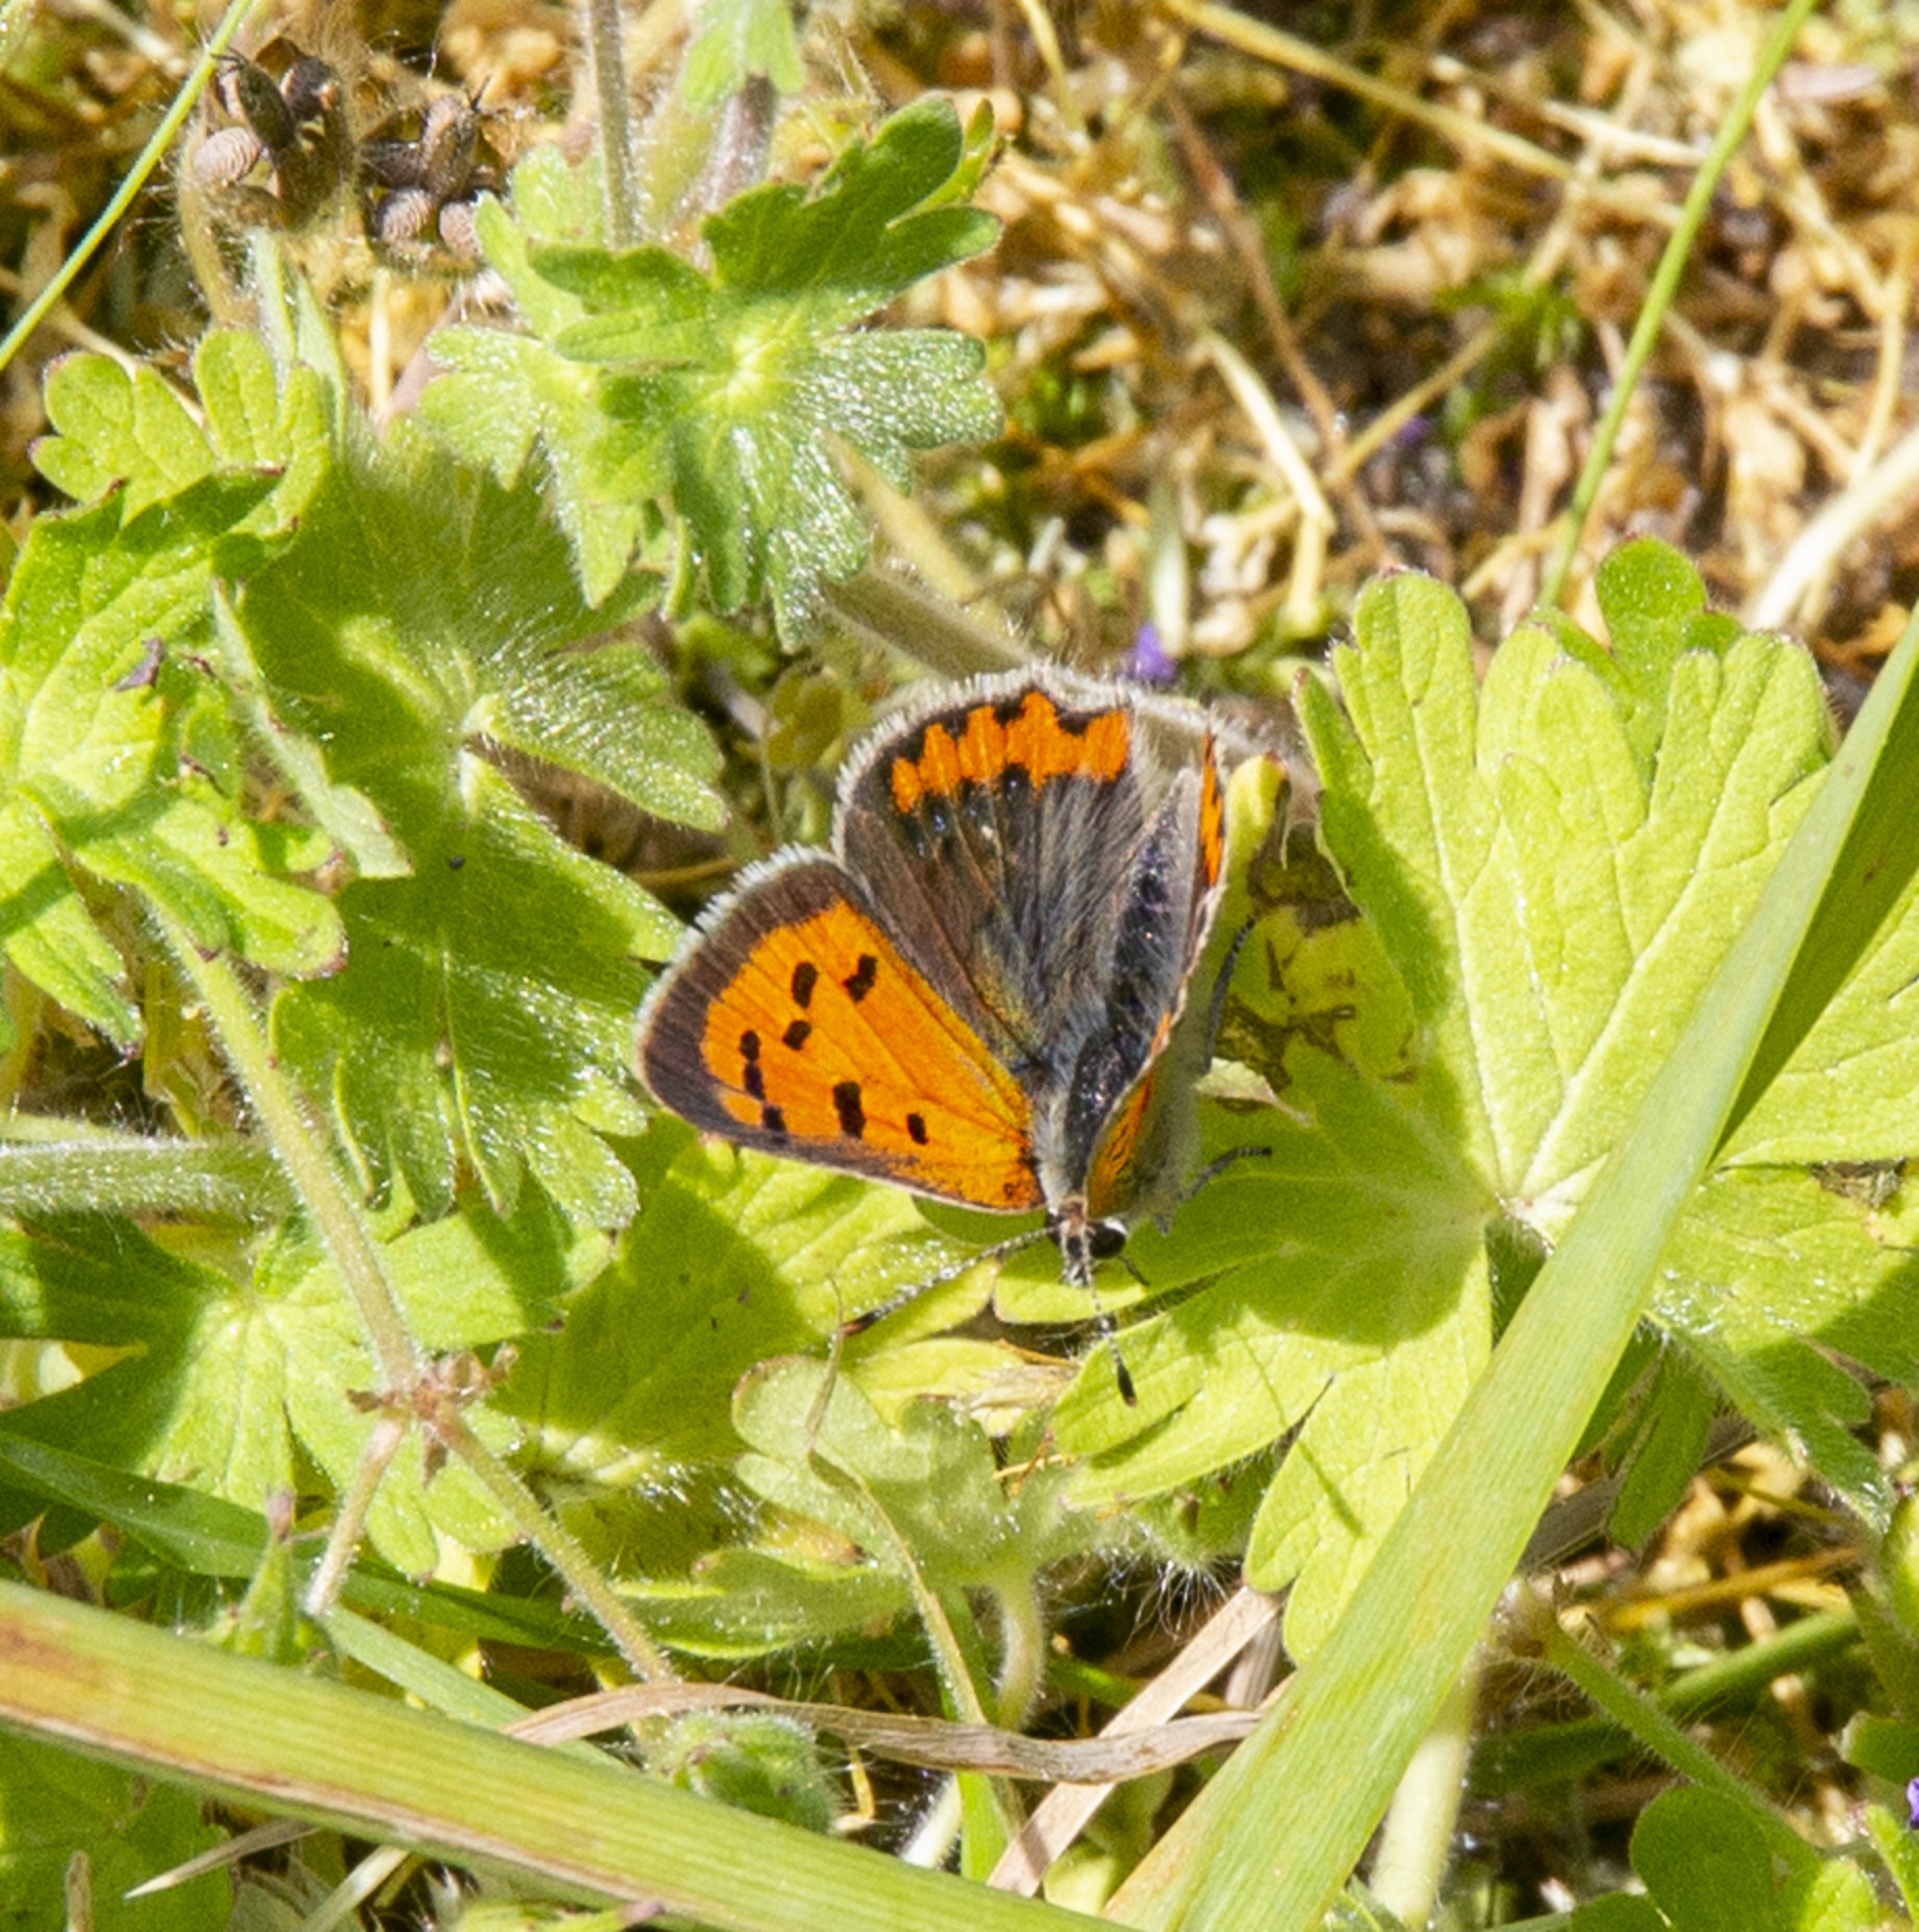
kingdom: Animalia
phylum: Arthropoda
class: Insecta
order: Lepidoptera
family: Lycaenidae
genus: Lycaena
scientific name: Lycaena phlaeas
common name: Lille ildfugl
